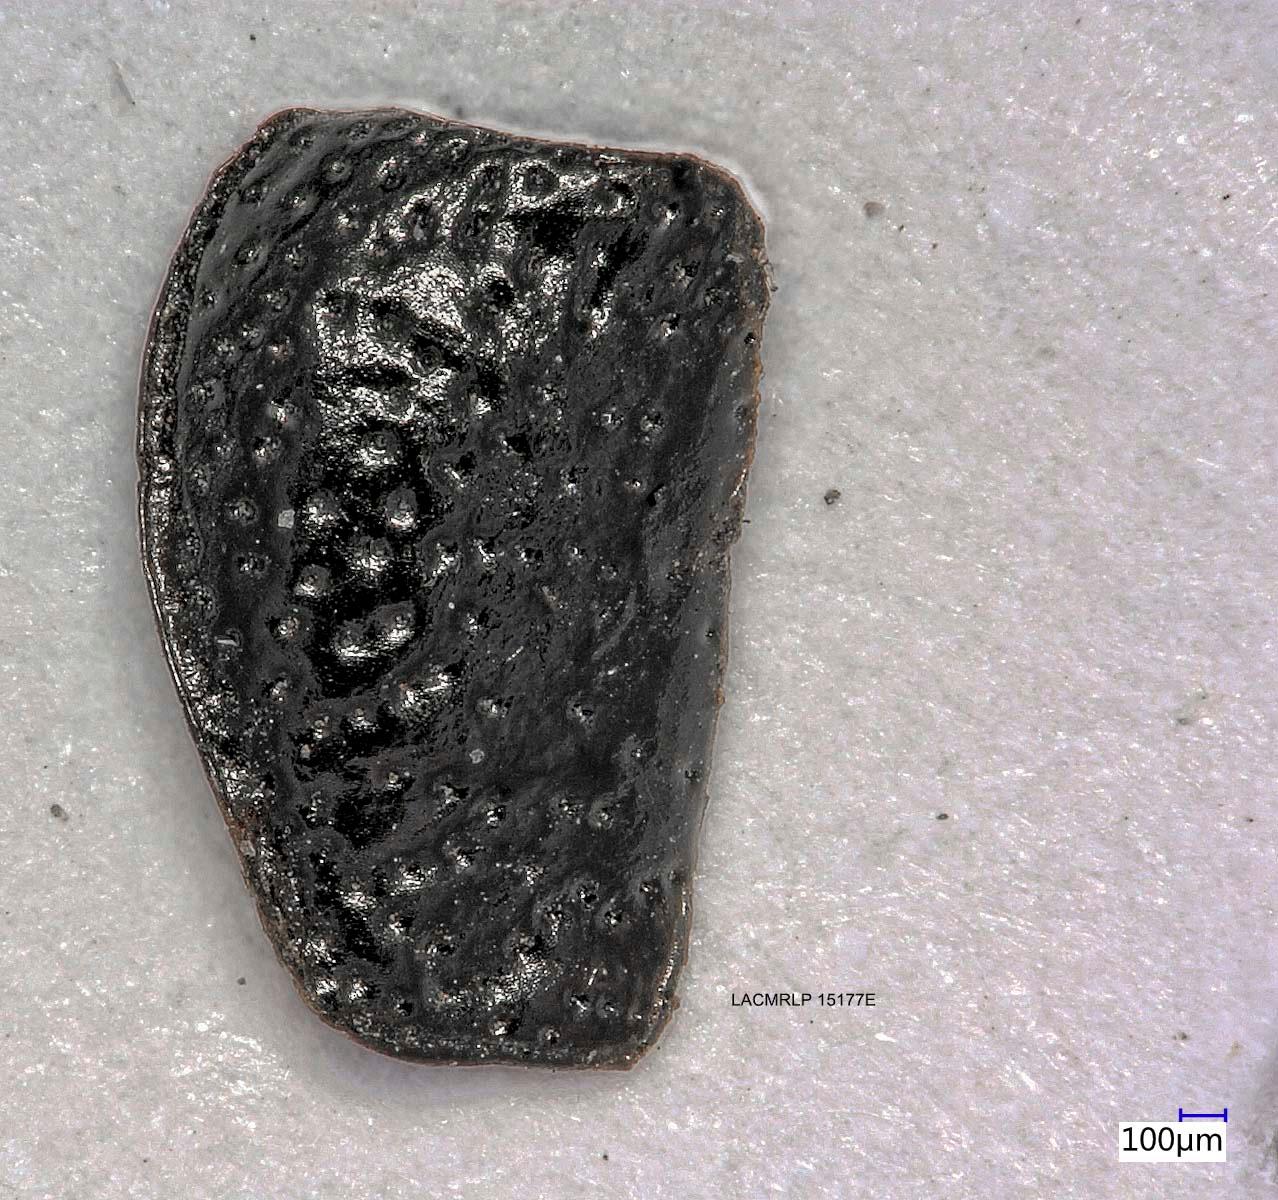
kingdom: Animalia
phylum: Arthropoda
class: Insecta
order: Coleoptera
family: Carabidae
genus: Dicheirus
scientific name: Dicheirus dilatatus
